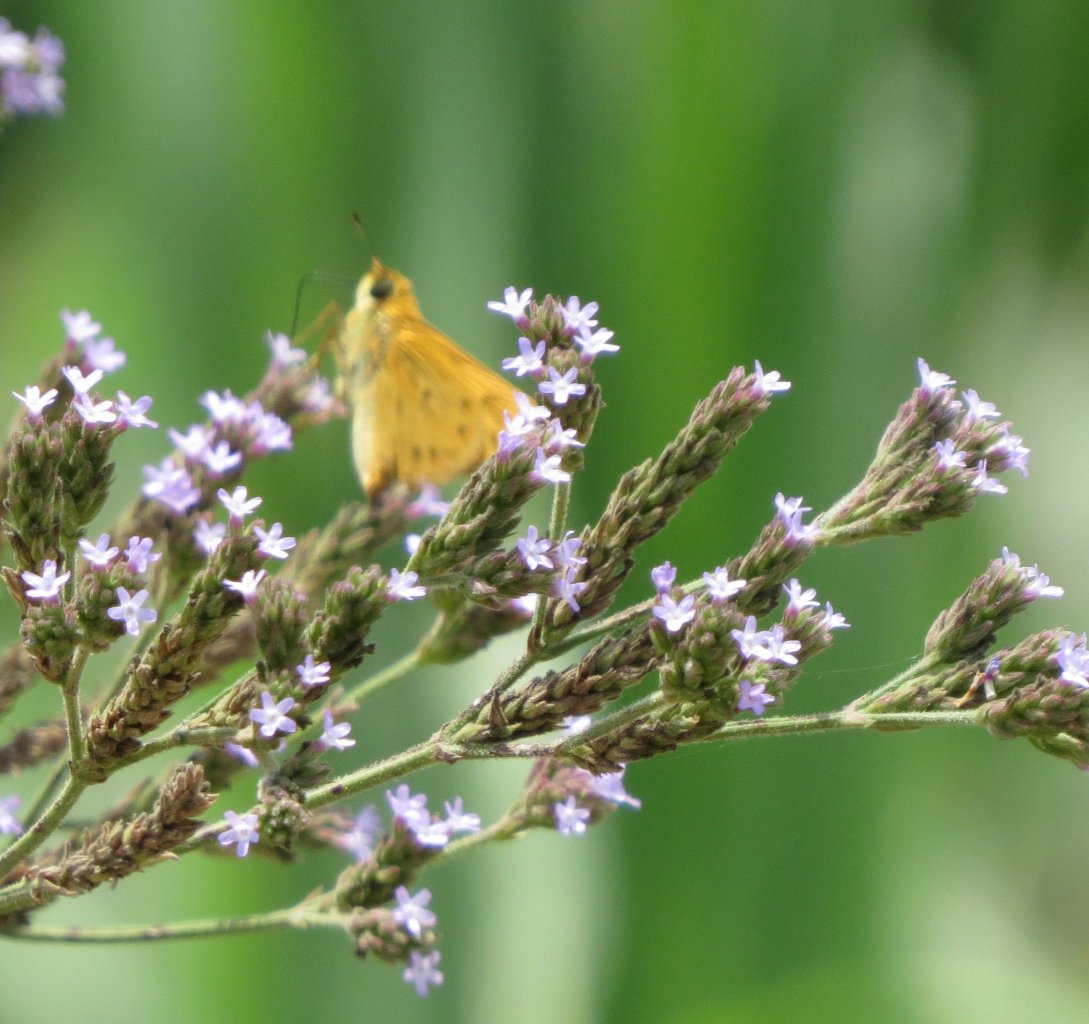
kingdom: Animalia
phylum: Arthropoda
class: Insecta
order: Lepidoptera
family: Hesperiidae
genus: Hylephila
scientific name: Hylephila phyleus
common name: Fiery Skipper
